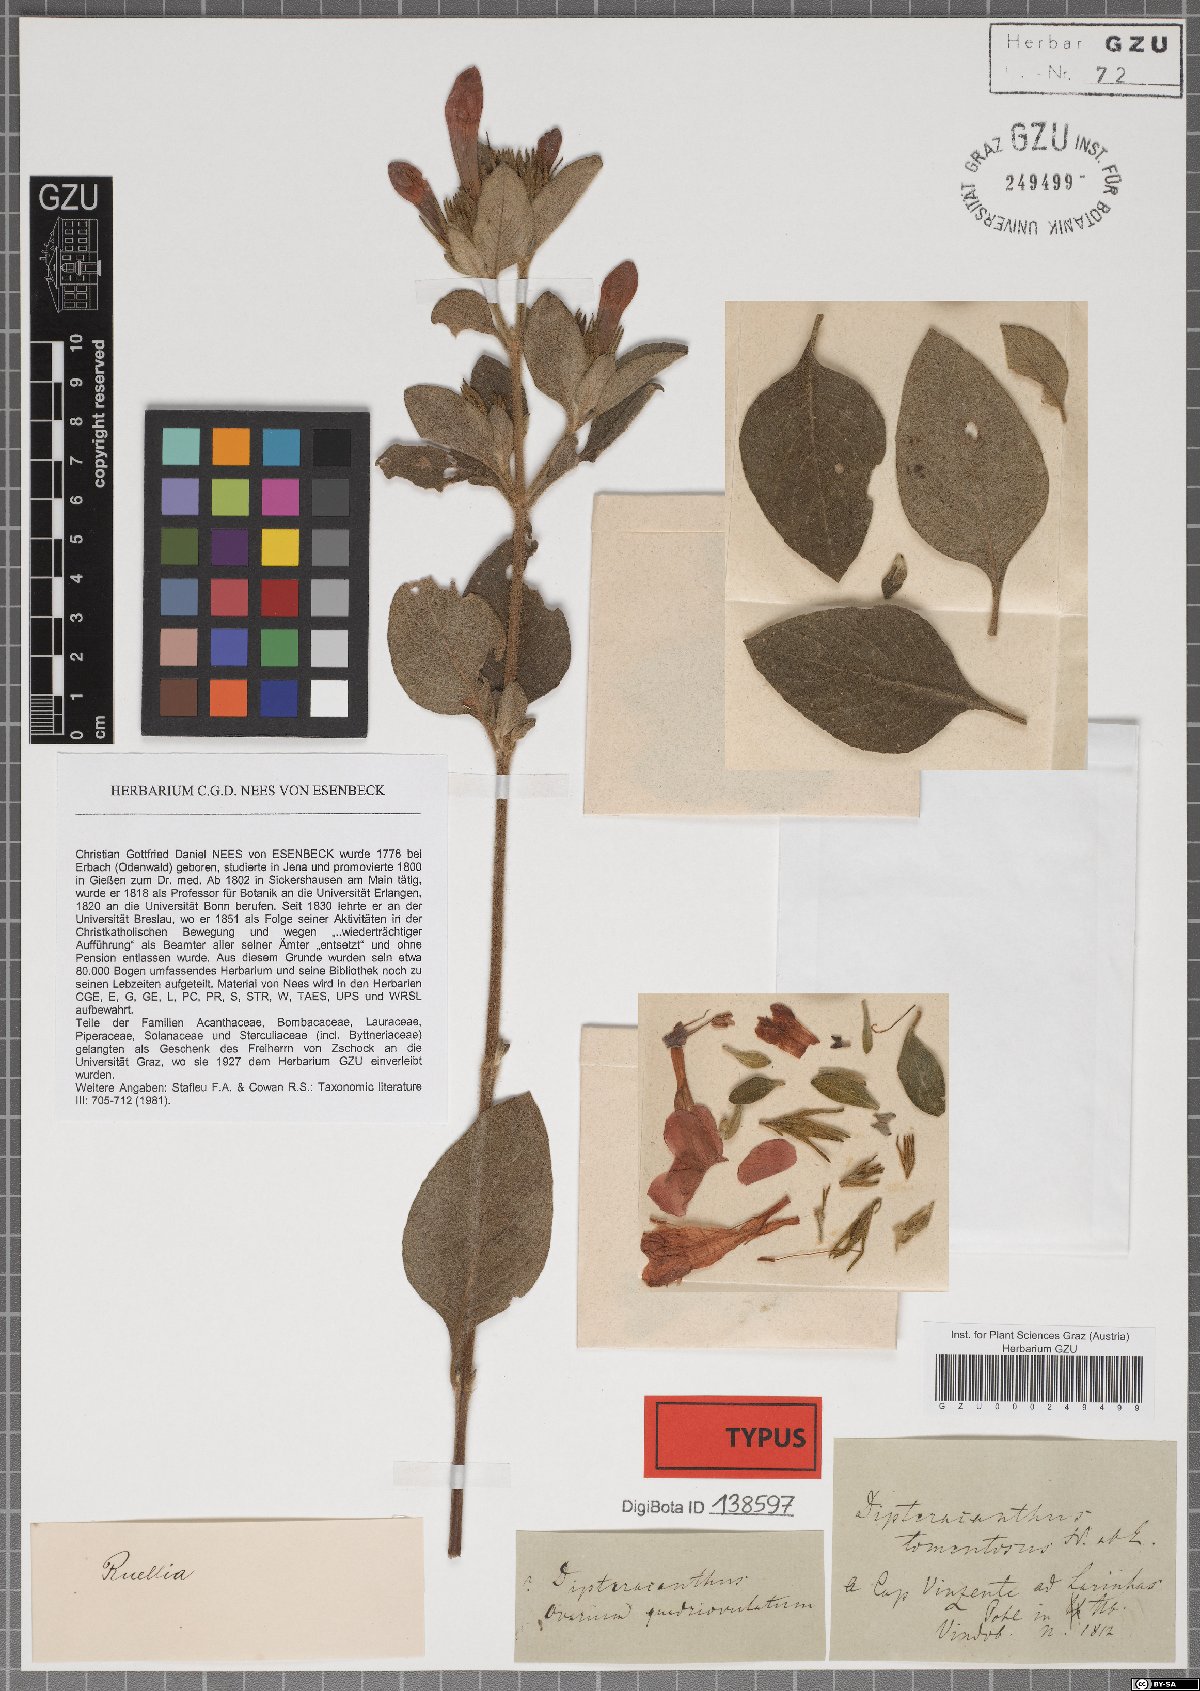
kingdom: Plantae
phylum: Tracheophyta
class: Magnoliopsida
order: Lamiales
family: Acanthaceae
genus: Ruellia
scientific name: Ruellia Dipteracanthus tomentosus
